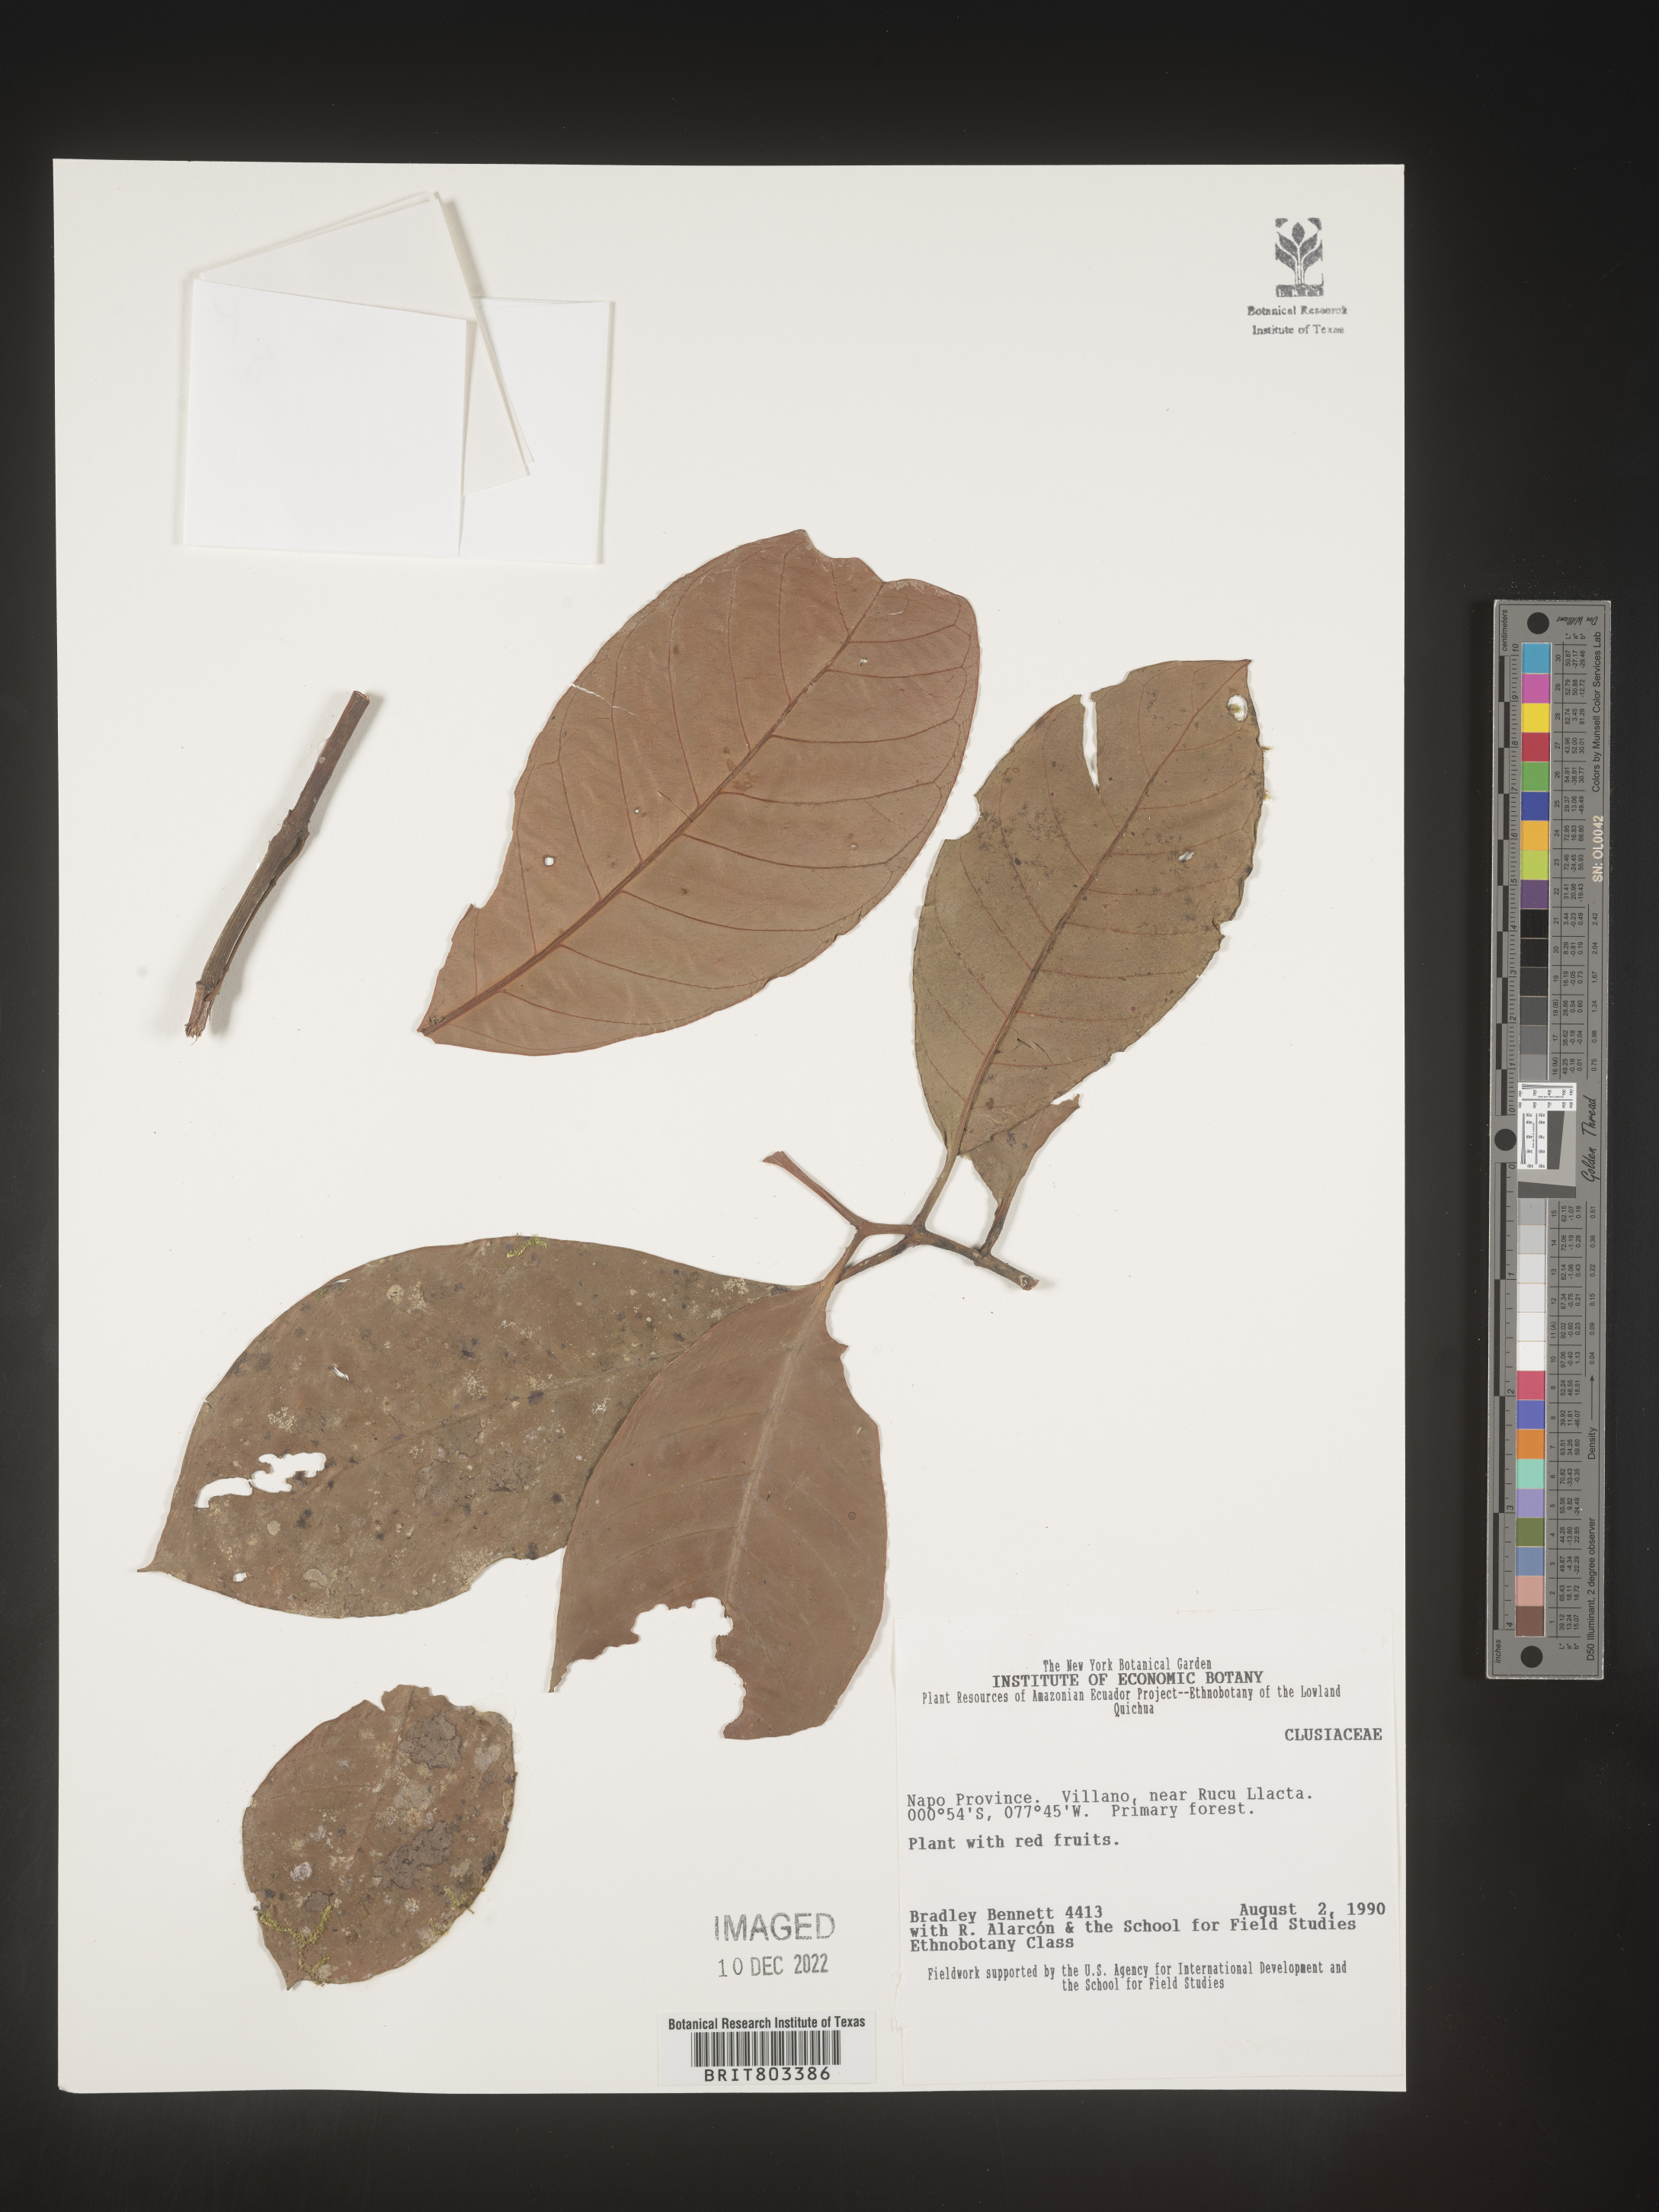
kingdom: Plantae
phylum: Tracheophyta
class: Magnoliopsida
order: Malpighiales
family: Clusiaceae
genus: Tovomita
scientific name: Tovomita
